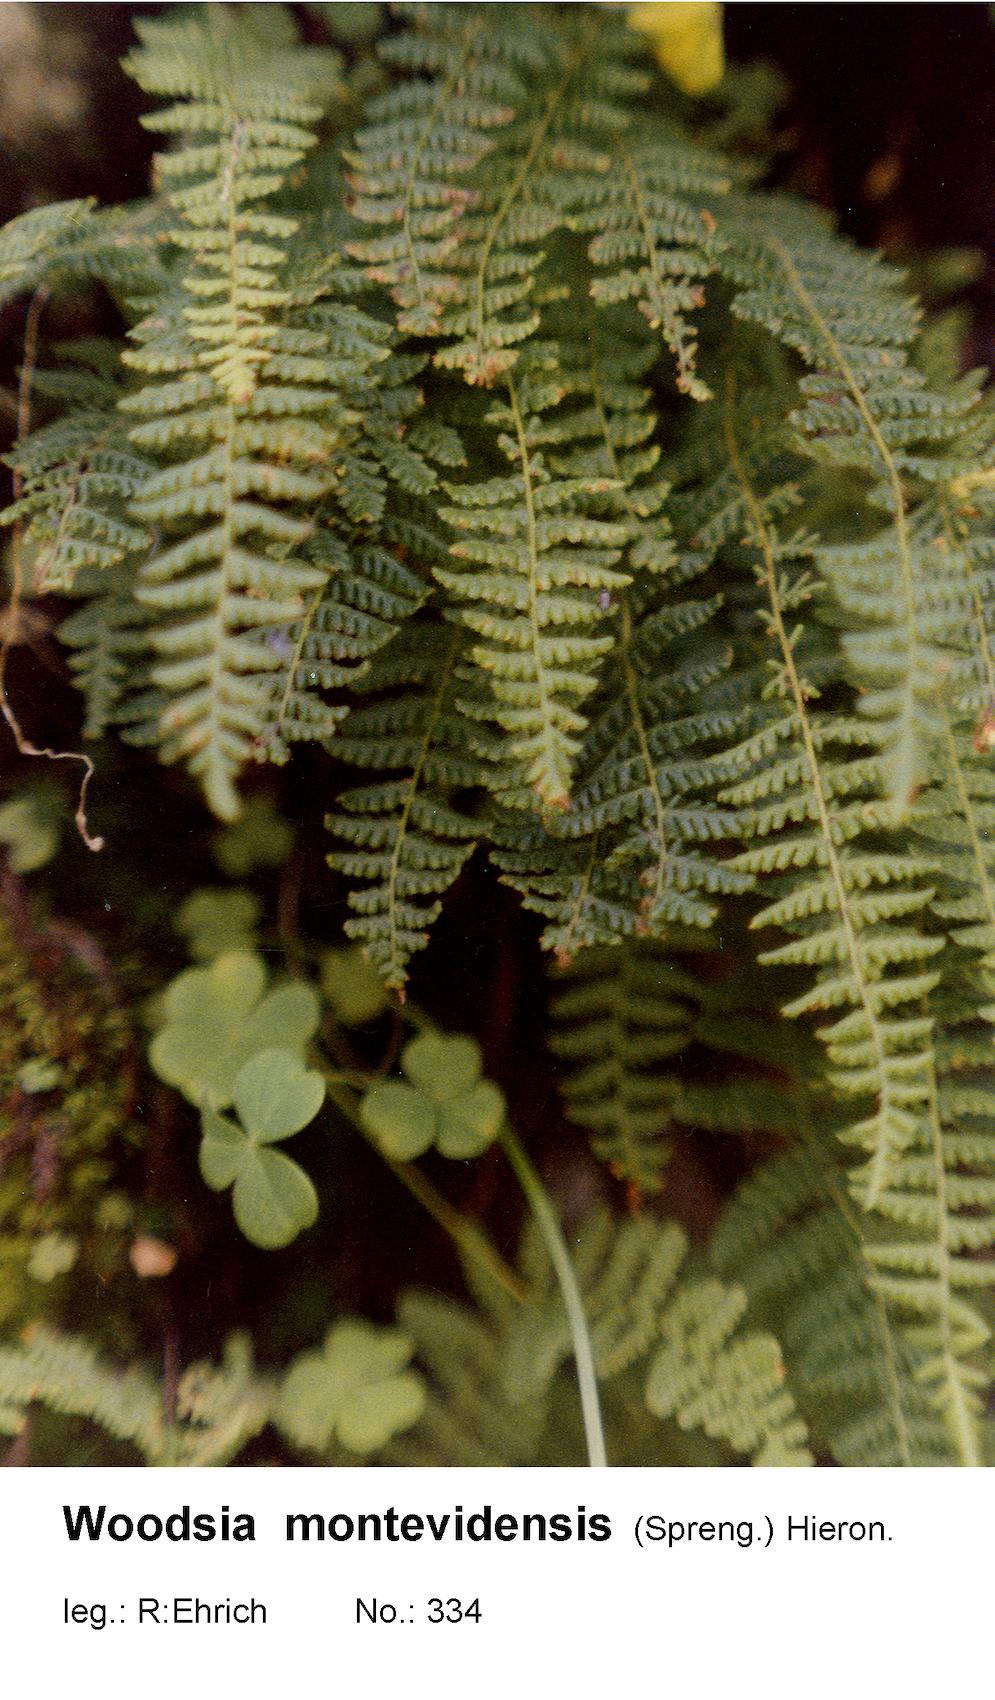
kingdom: Plantae
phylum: Tracheophyta
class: Polypodiopsida
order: Polypodiales
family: Woodsiaceae
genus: Physematium
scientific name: Physematium montevidense
